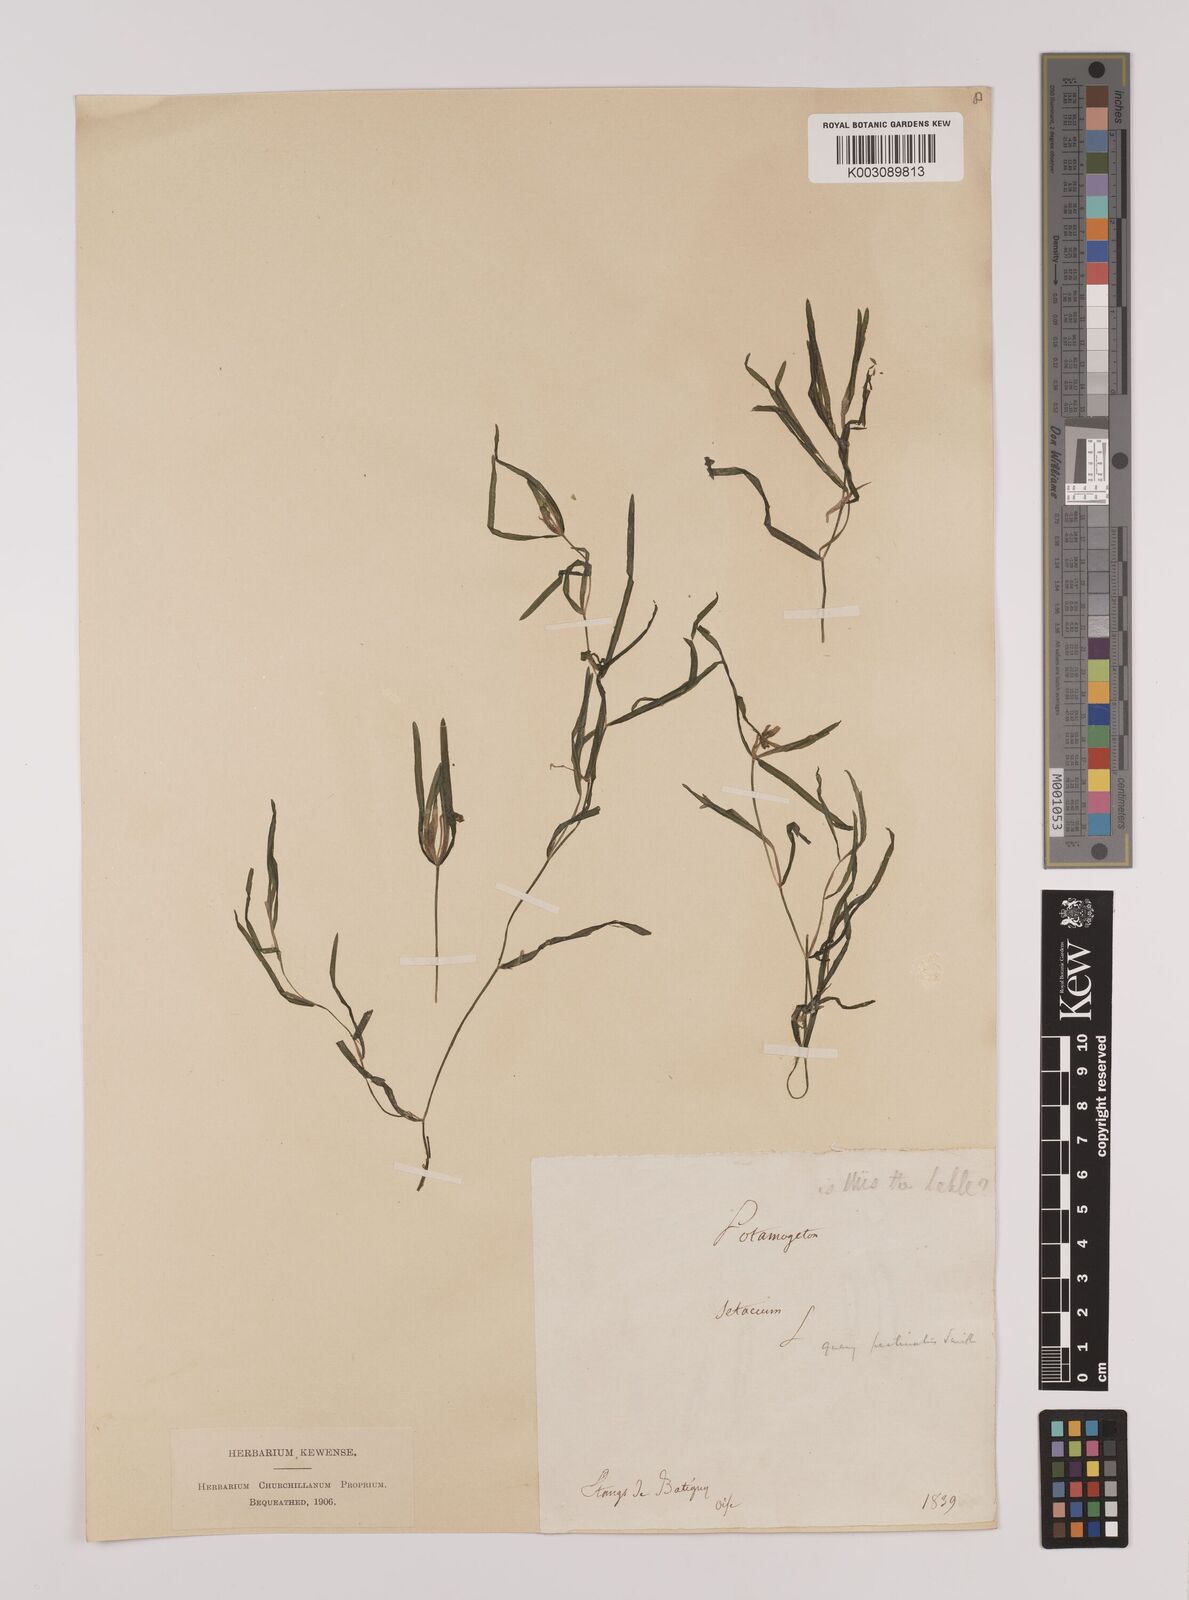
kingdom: Plantae
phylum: Tracheophyta
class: Liliopsida
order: Alismatales
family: Potamogetonaceae
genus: Stuckenia
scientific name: Stuckenia pectinata
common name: Sago pondweed
